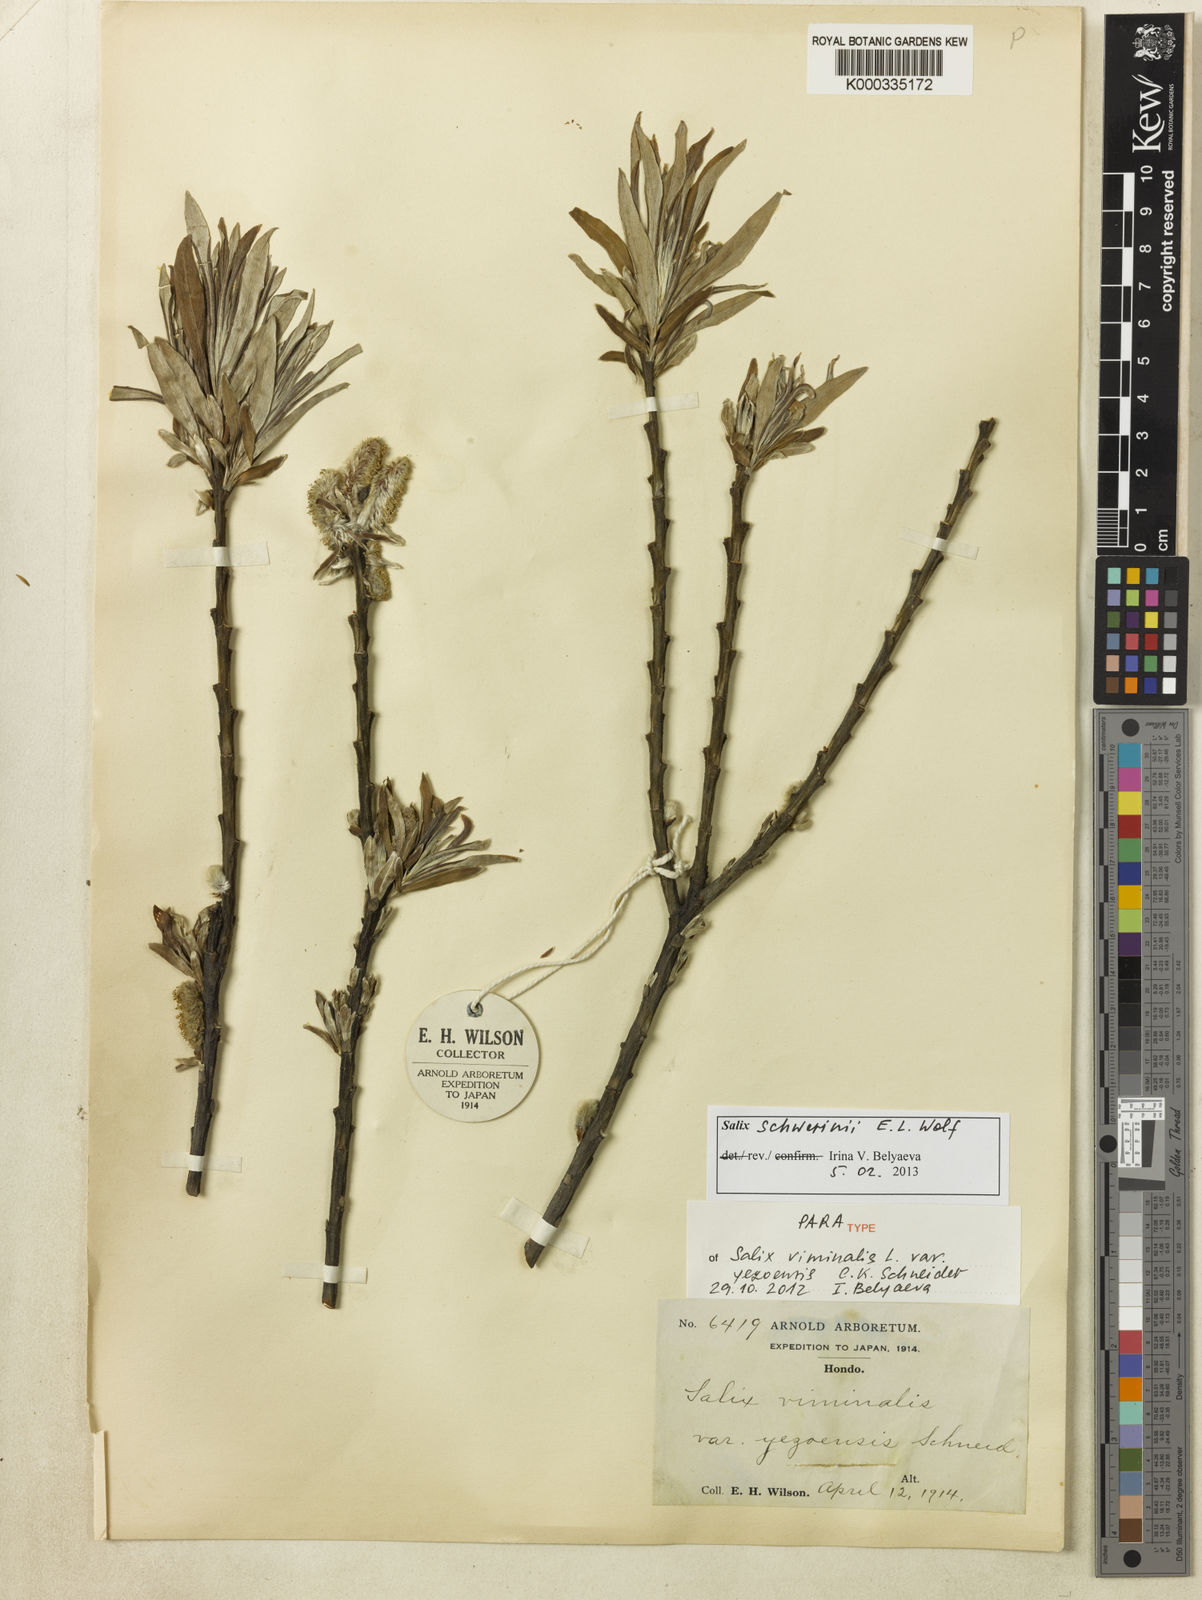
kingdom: Plantae
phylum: Tracheophyta
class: Magnoliopsida
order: Malpighiales
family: Salicaceae
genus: Salix
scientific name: Salix viminalis
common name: Osier
